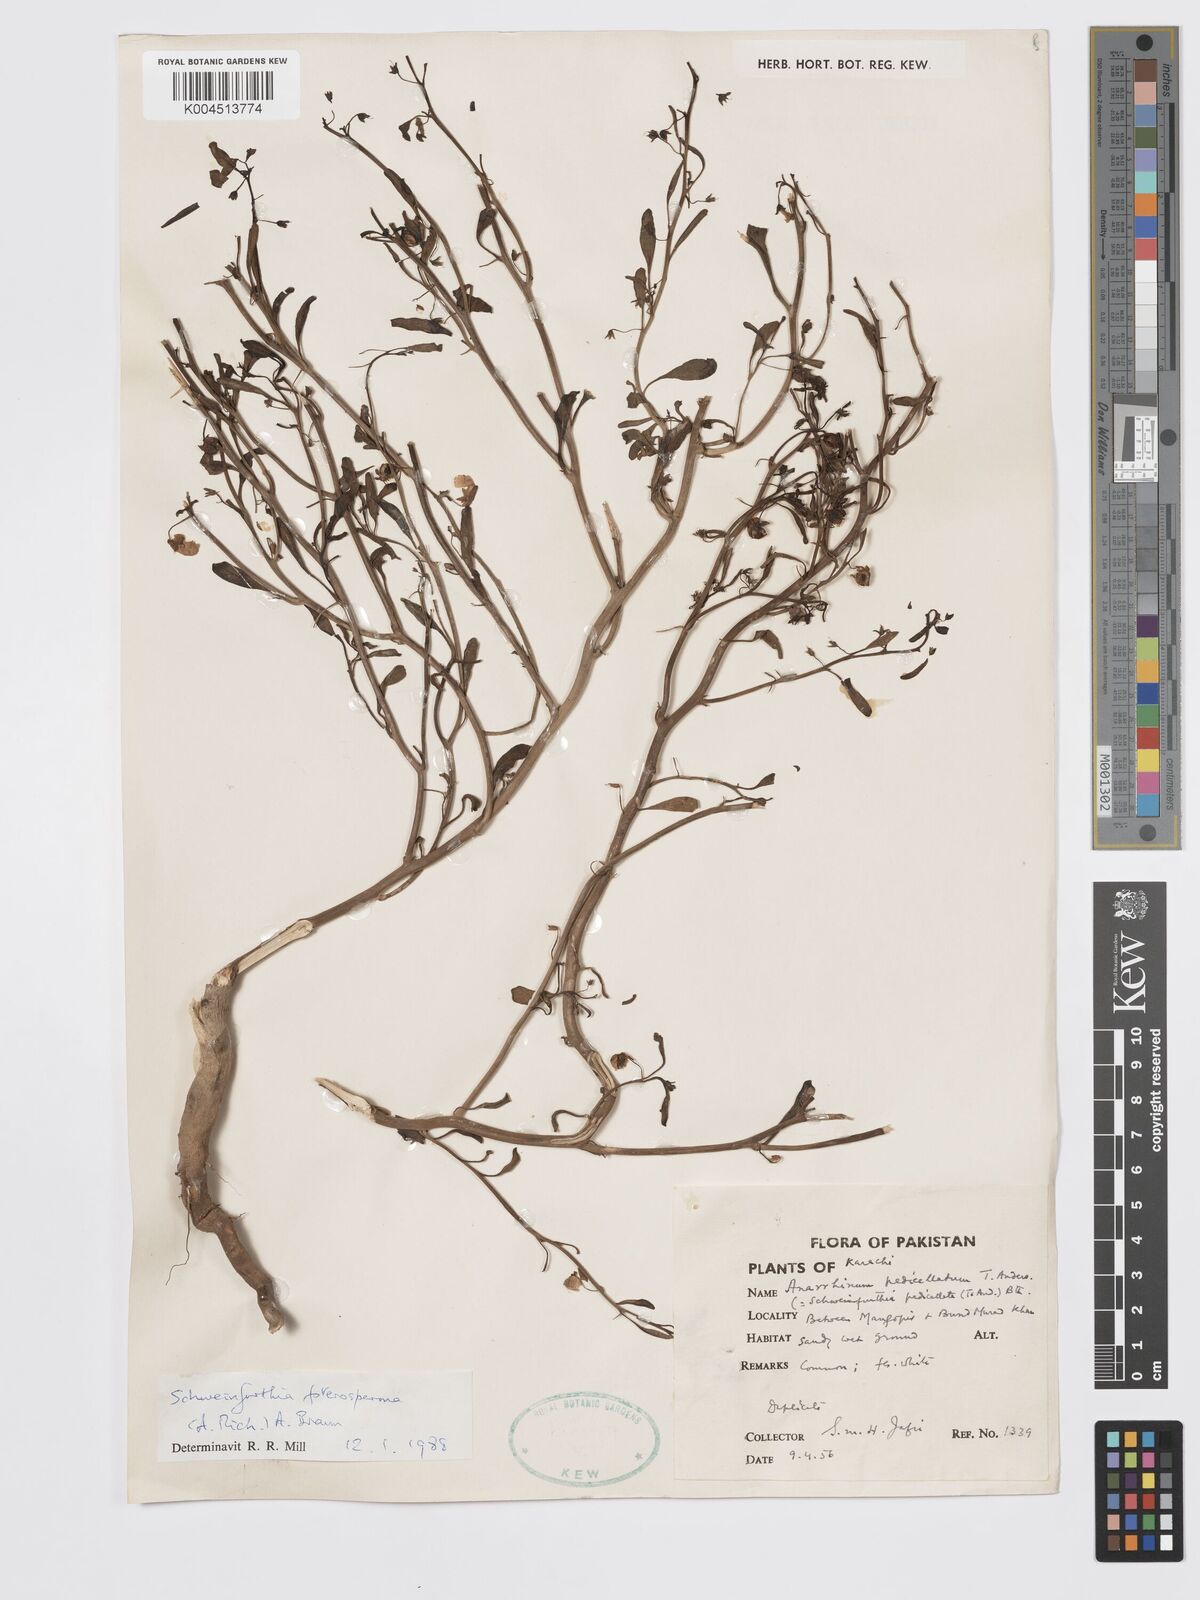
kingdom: Plantae
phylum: Tracheophyta
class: Magnoliopsida
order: Lamiales
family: Plantaginaceae
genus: Schweinfurthia
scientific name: Schweinfurthia pedicellata
